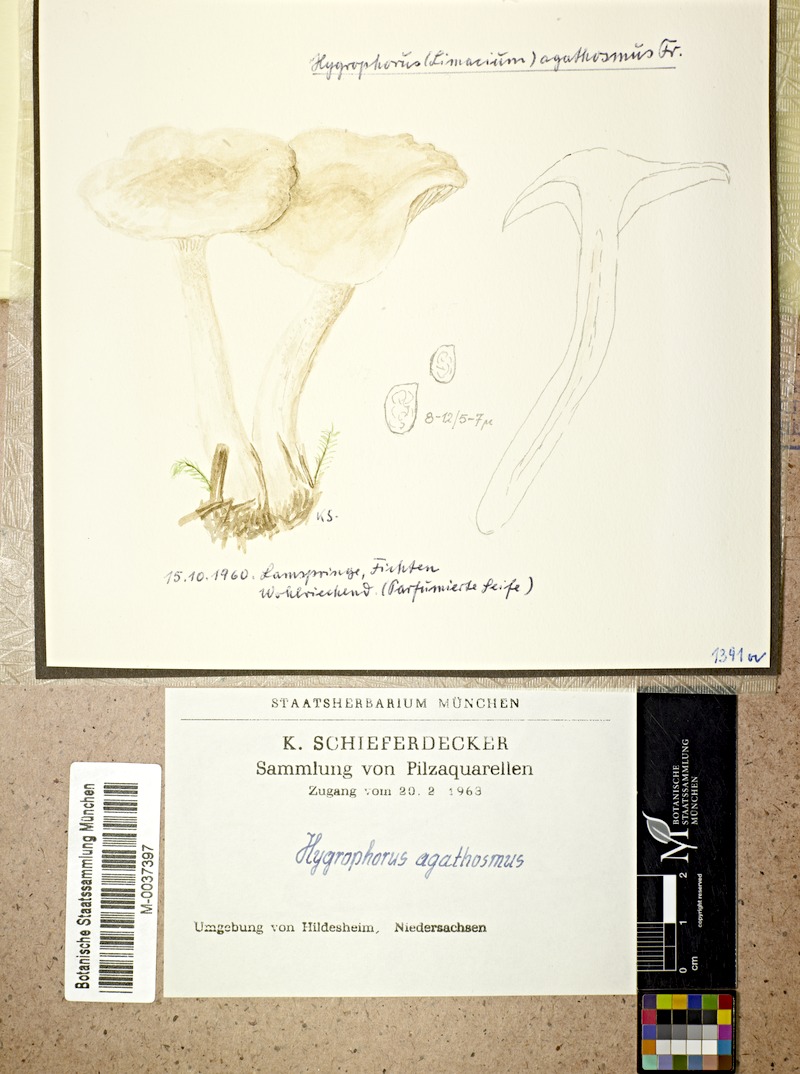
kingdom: Fungi
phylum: Basidiomycota
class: Agaricomycetes
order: Agaricales
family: Hygrophoraceae
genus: Hygrophorus
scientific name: Hygrophorus agathosmus
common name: Almond woodwax
